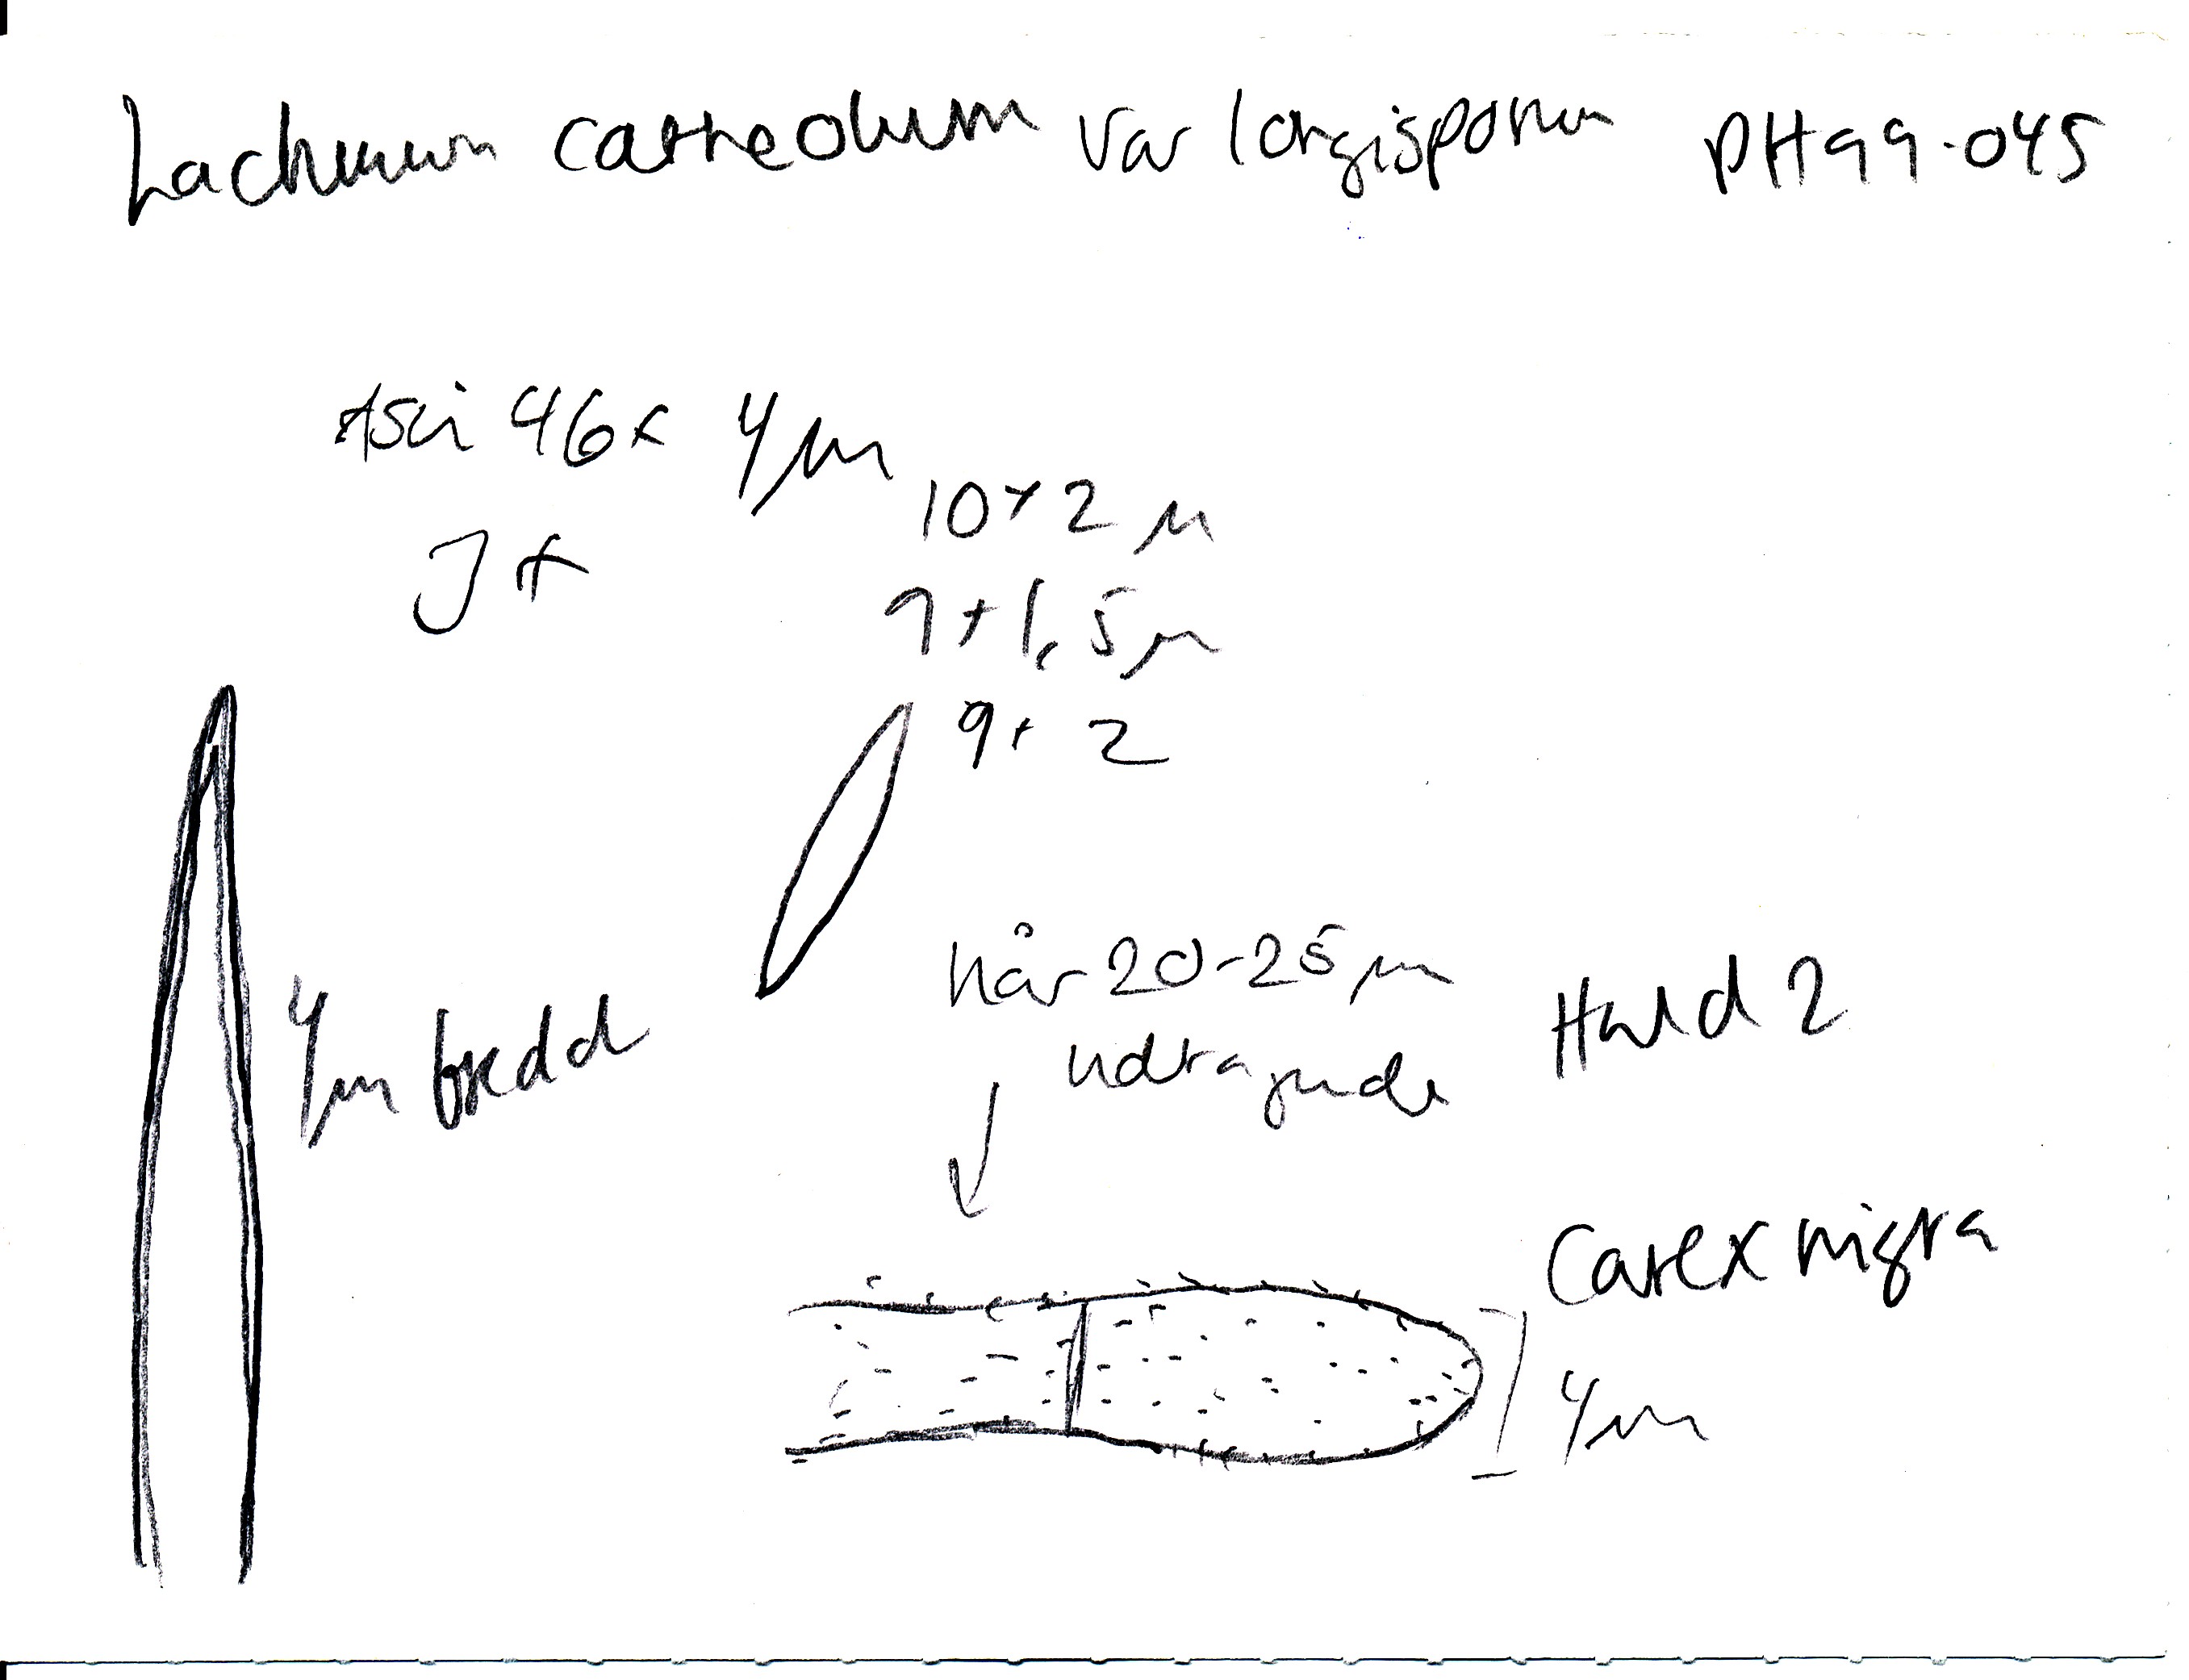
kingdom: Fungi
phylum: Ascomycota
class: Leotiomycetes
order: Helotiales
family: Lachnaceae
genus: Lachnum
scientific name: Lachnum tenuipilosum
